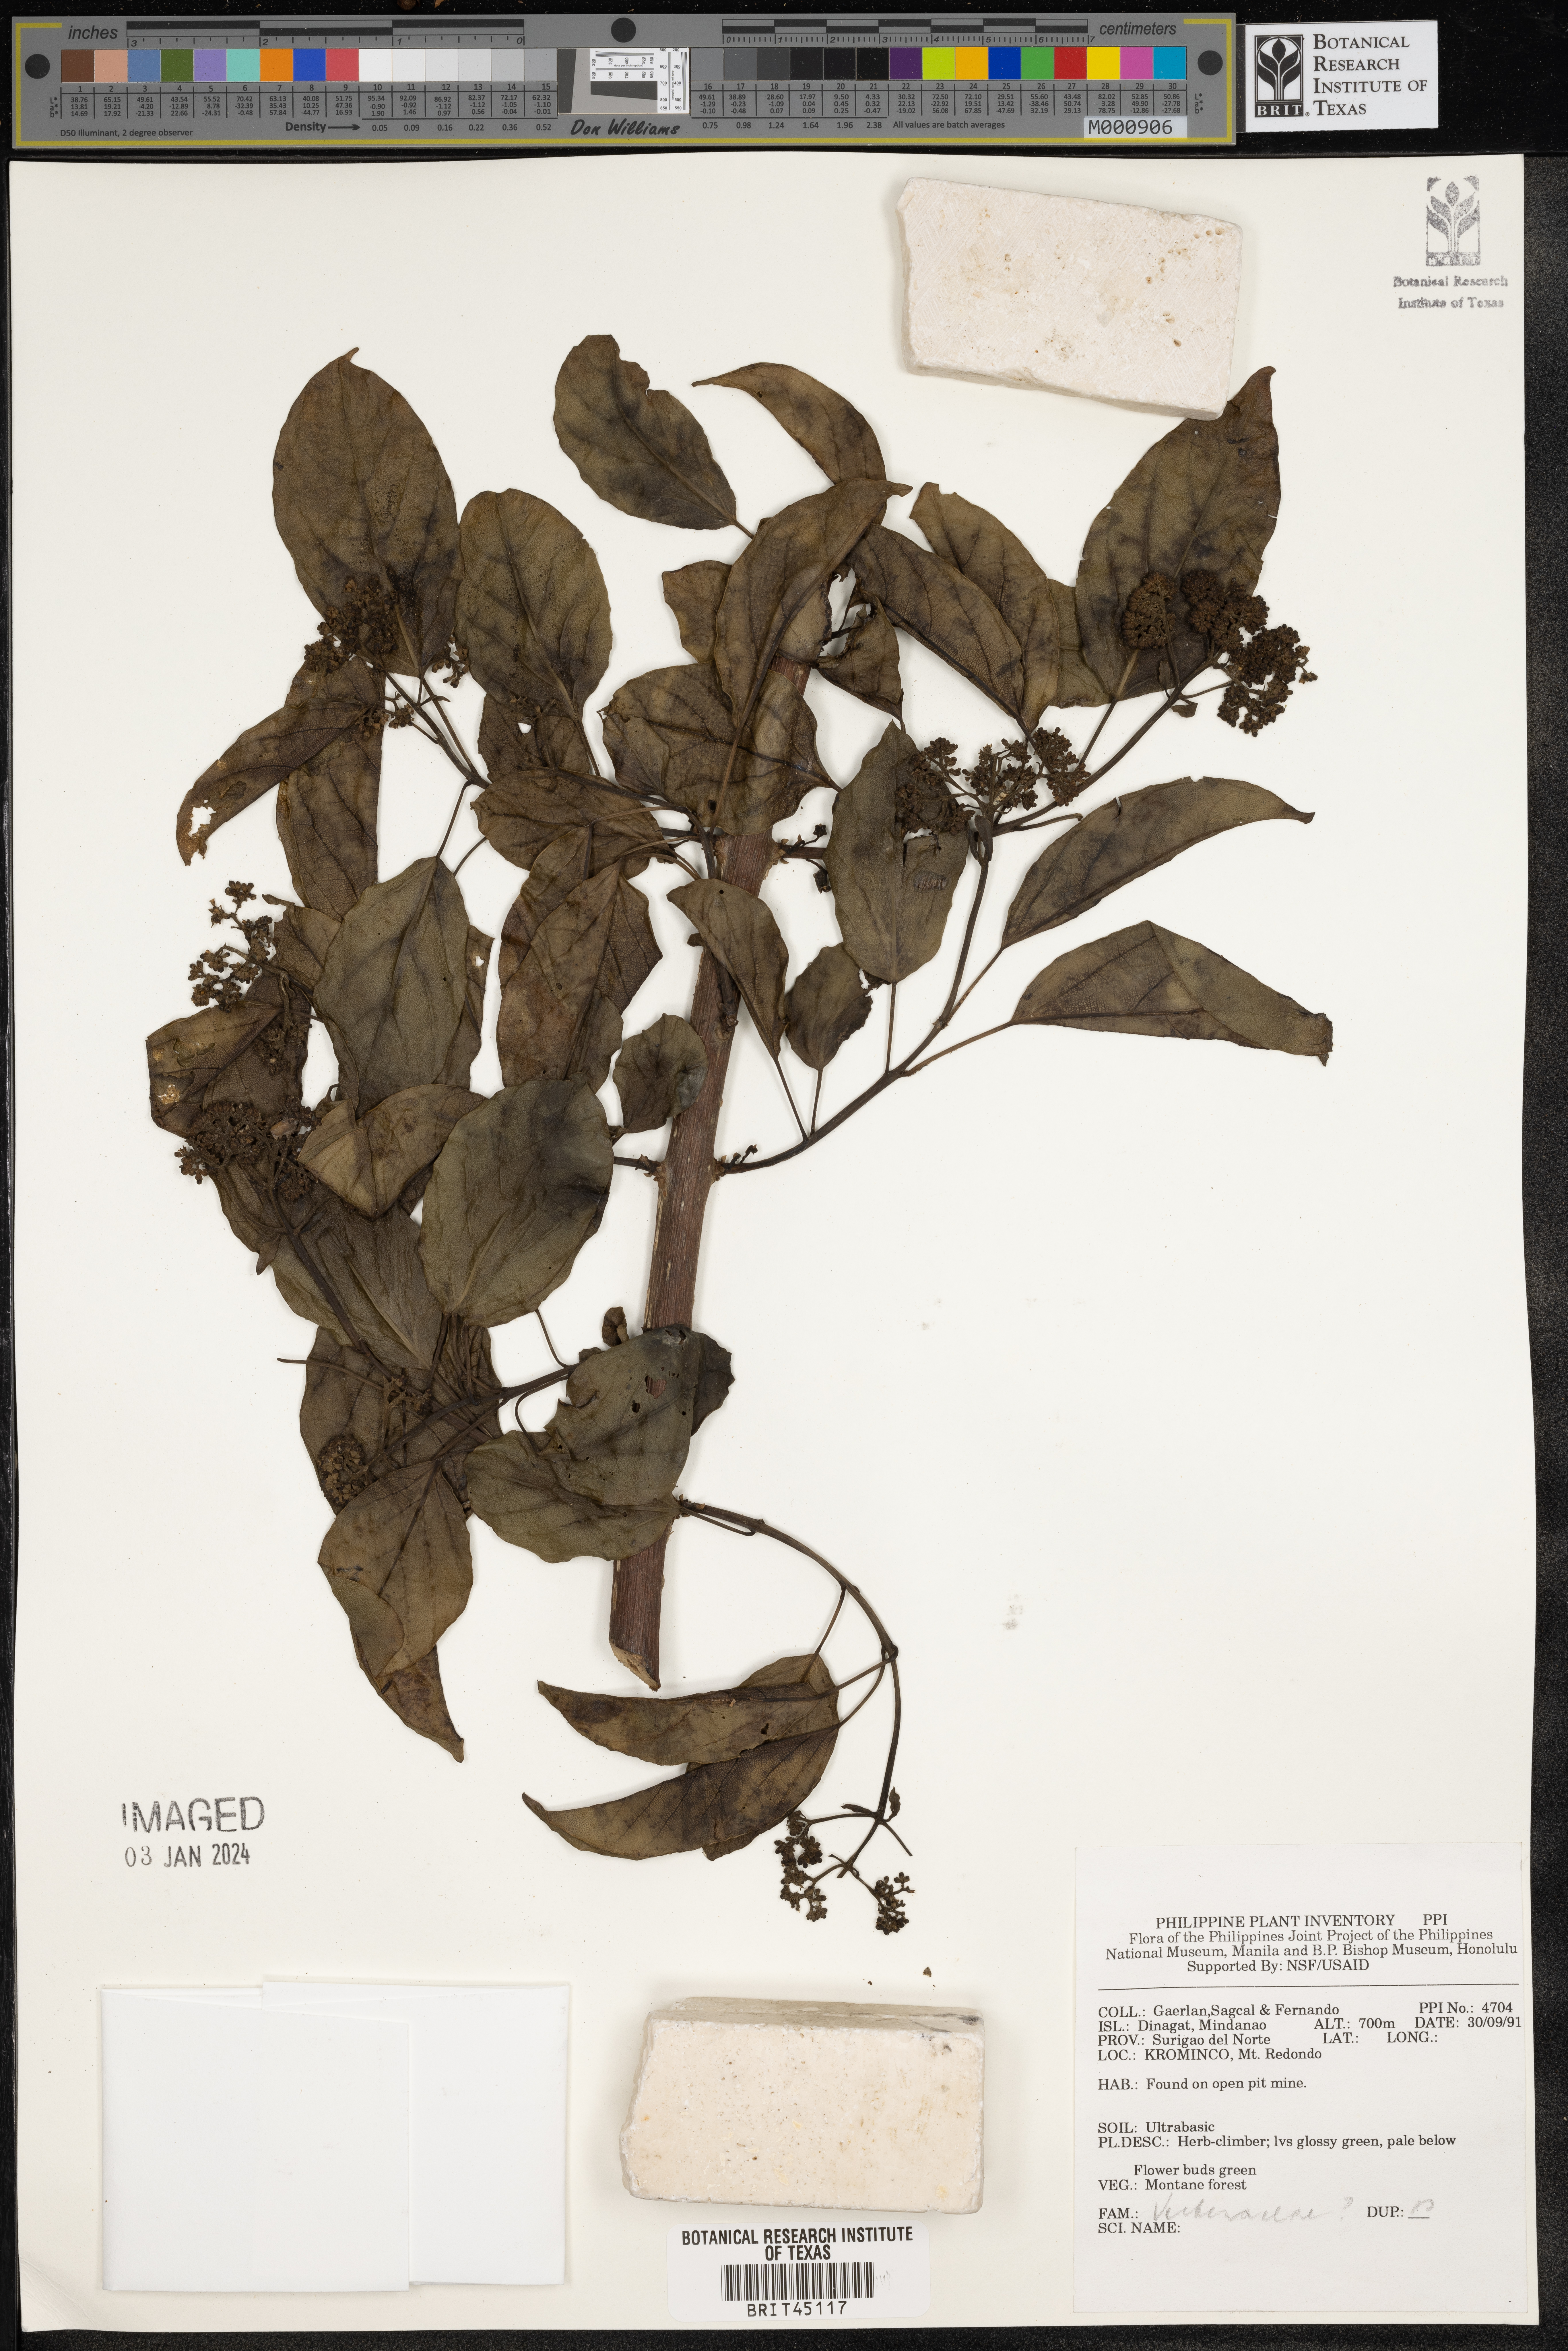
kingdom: Plantae
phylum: Tracheophyta
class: Magnoliopsida
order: Lamiales
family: Verbenaceae
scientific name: Verbenaceae
